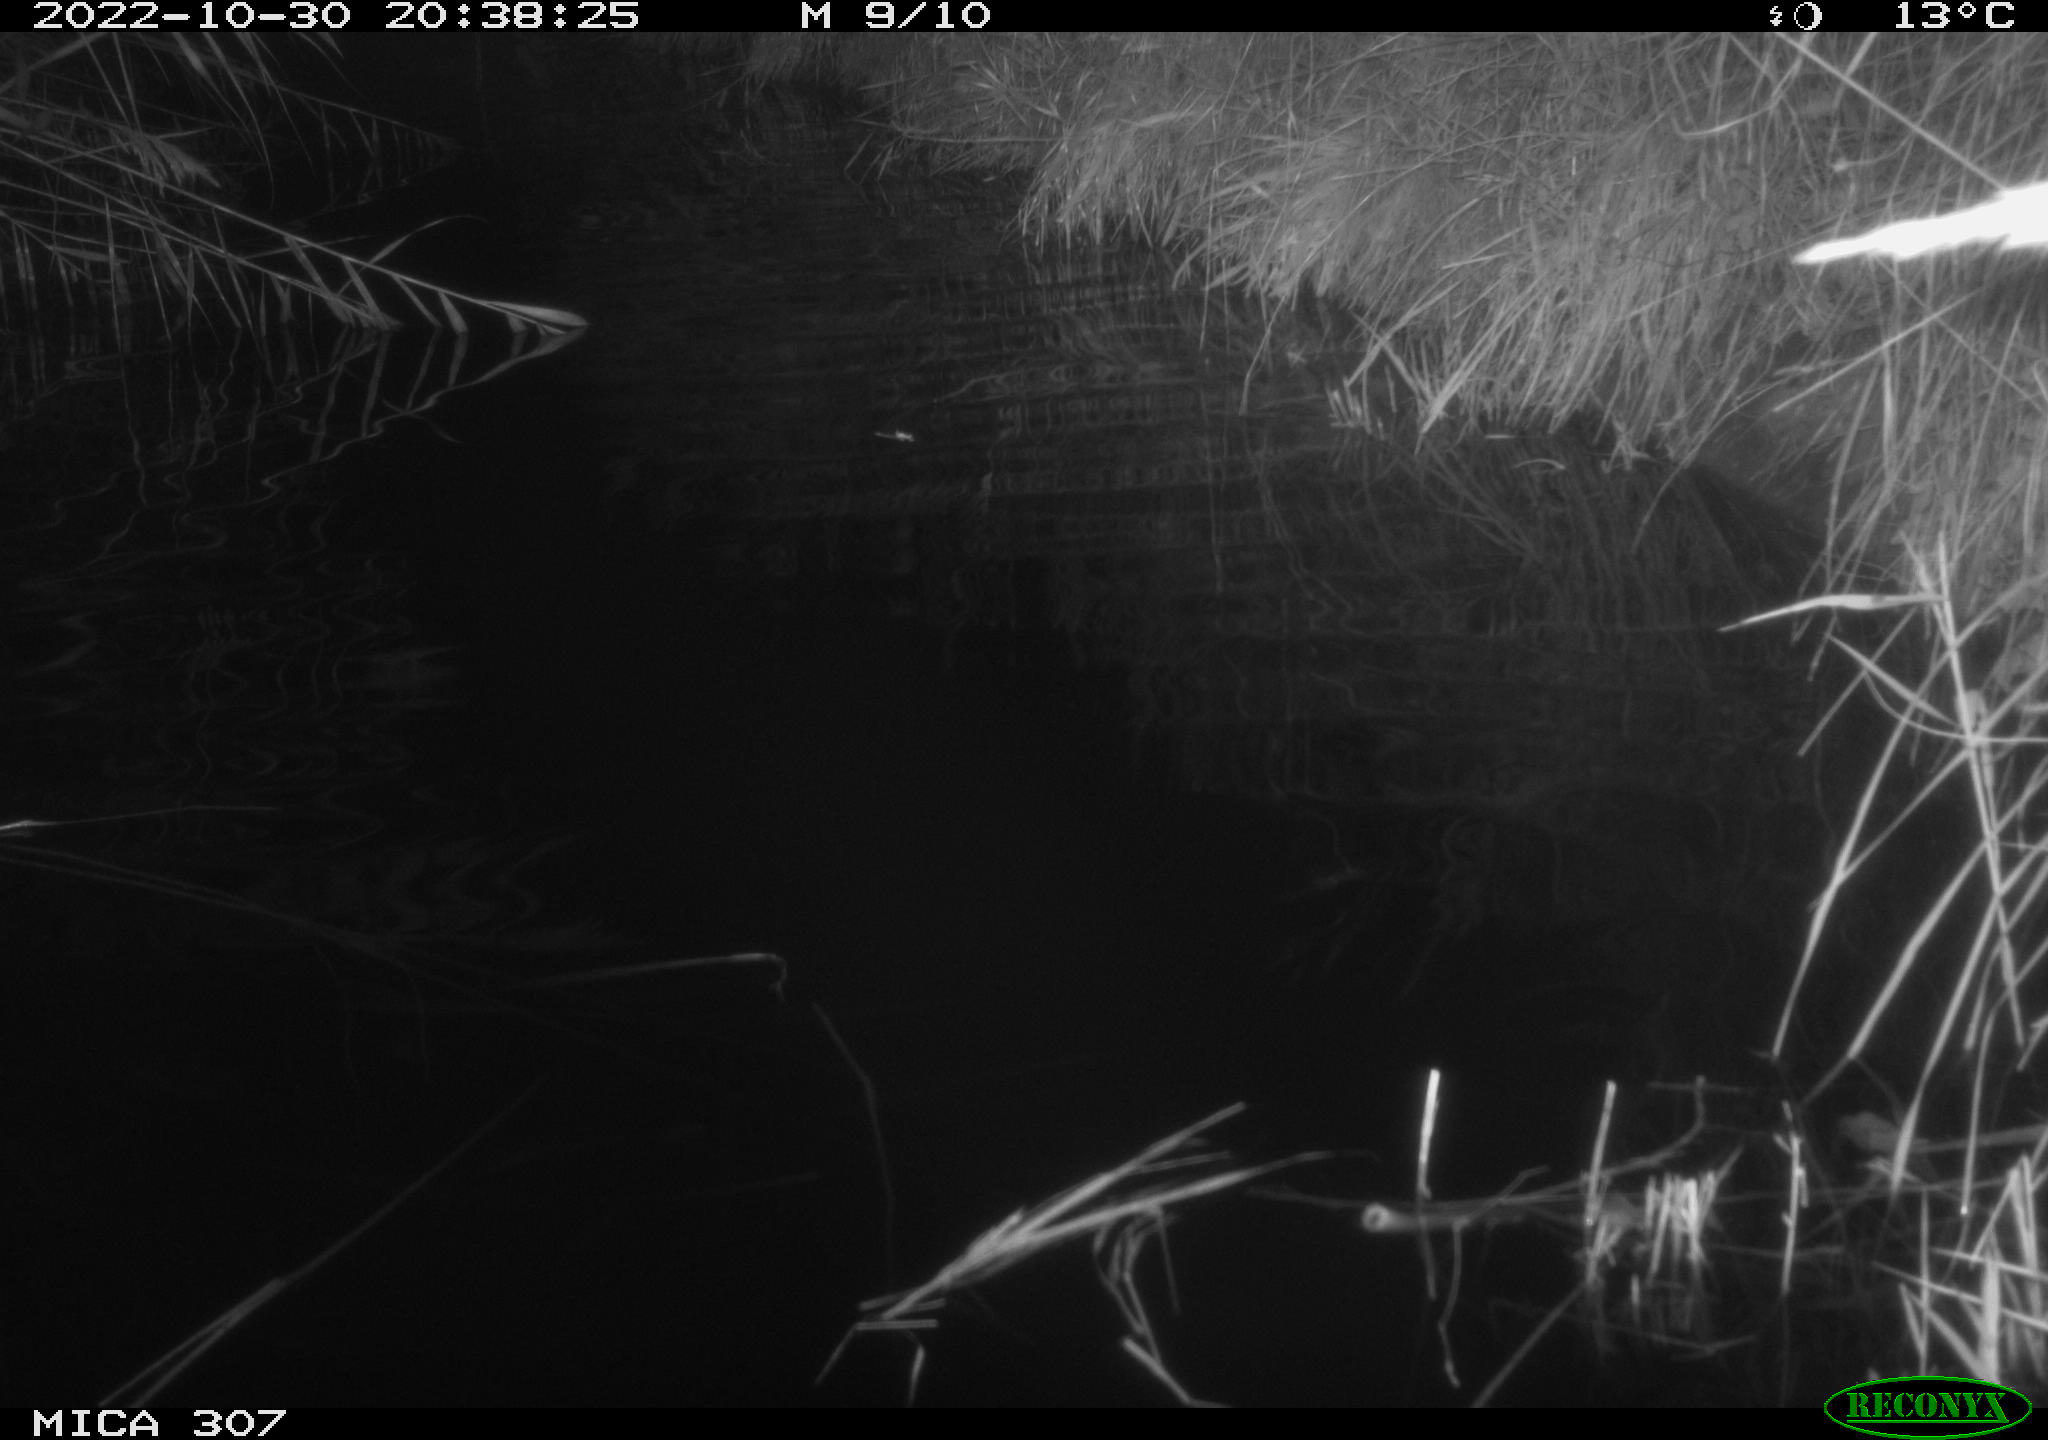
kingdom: Animalia
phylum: Chordata
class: Aves
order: Anseriformes
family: Anatidae
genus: Anas
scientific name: Anas
